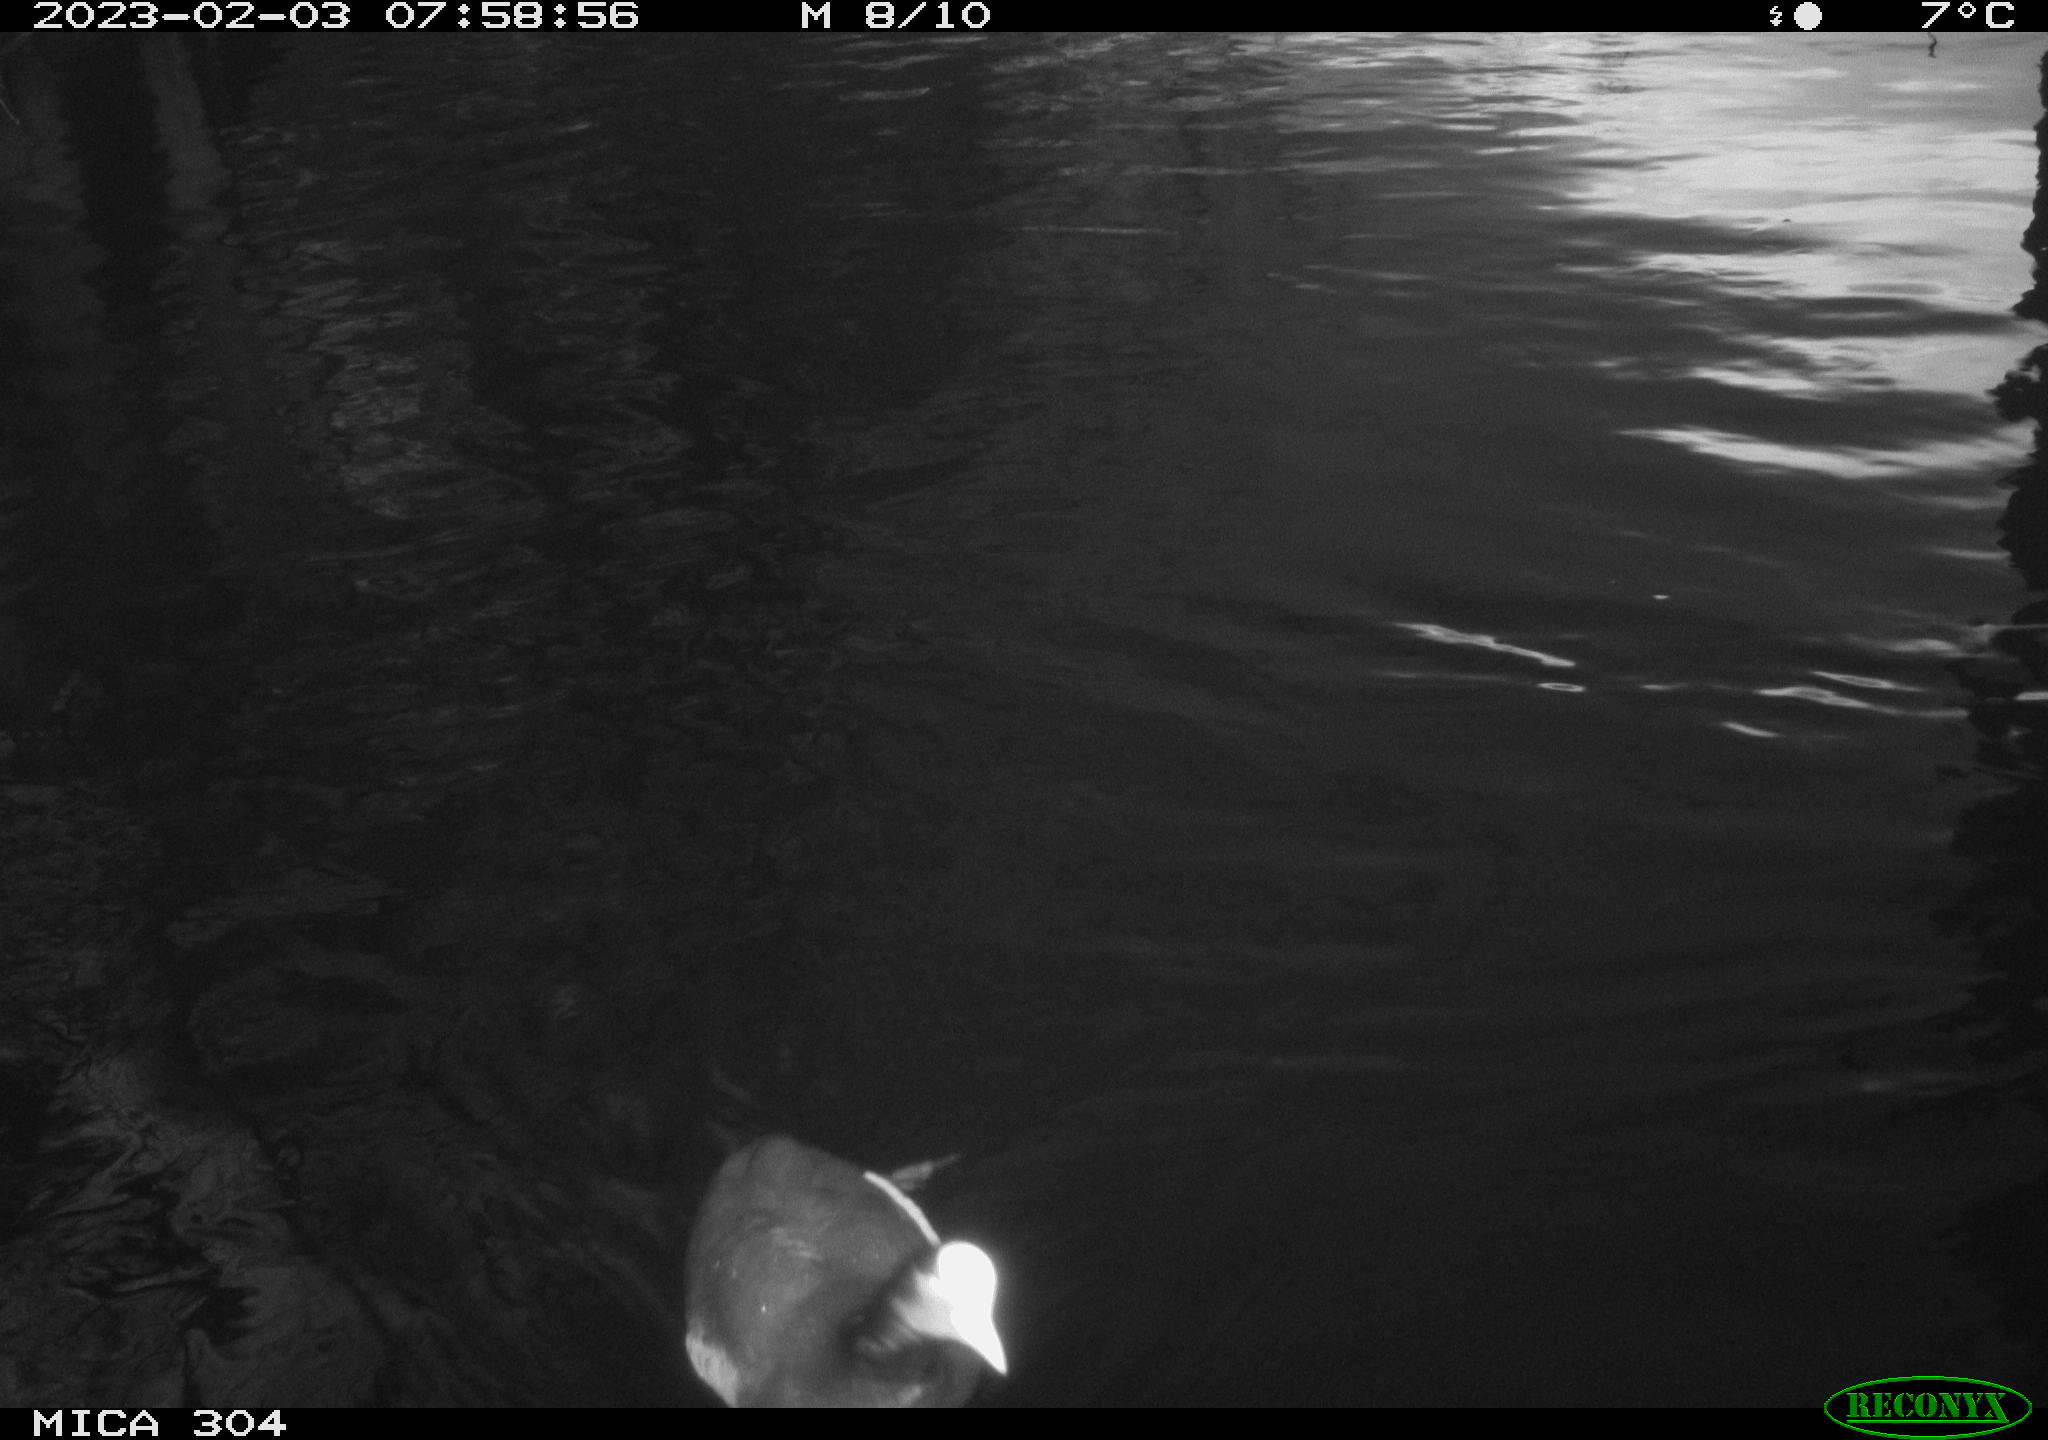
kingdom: Animalia
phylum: Chordata
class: Aves
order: Gruiformes
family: Rallidae
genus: Fulica
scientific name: Fulica atra
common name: Eurasian coot
